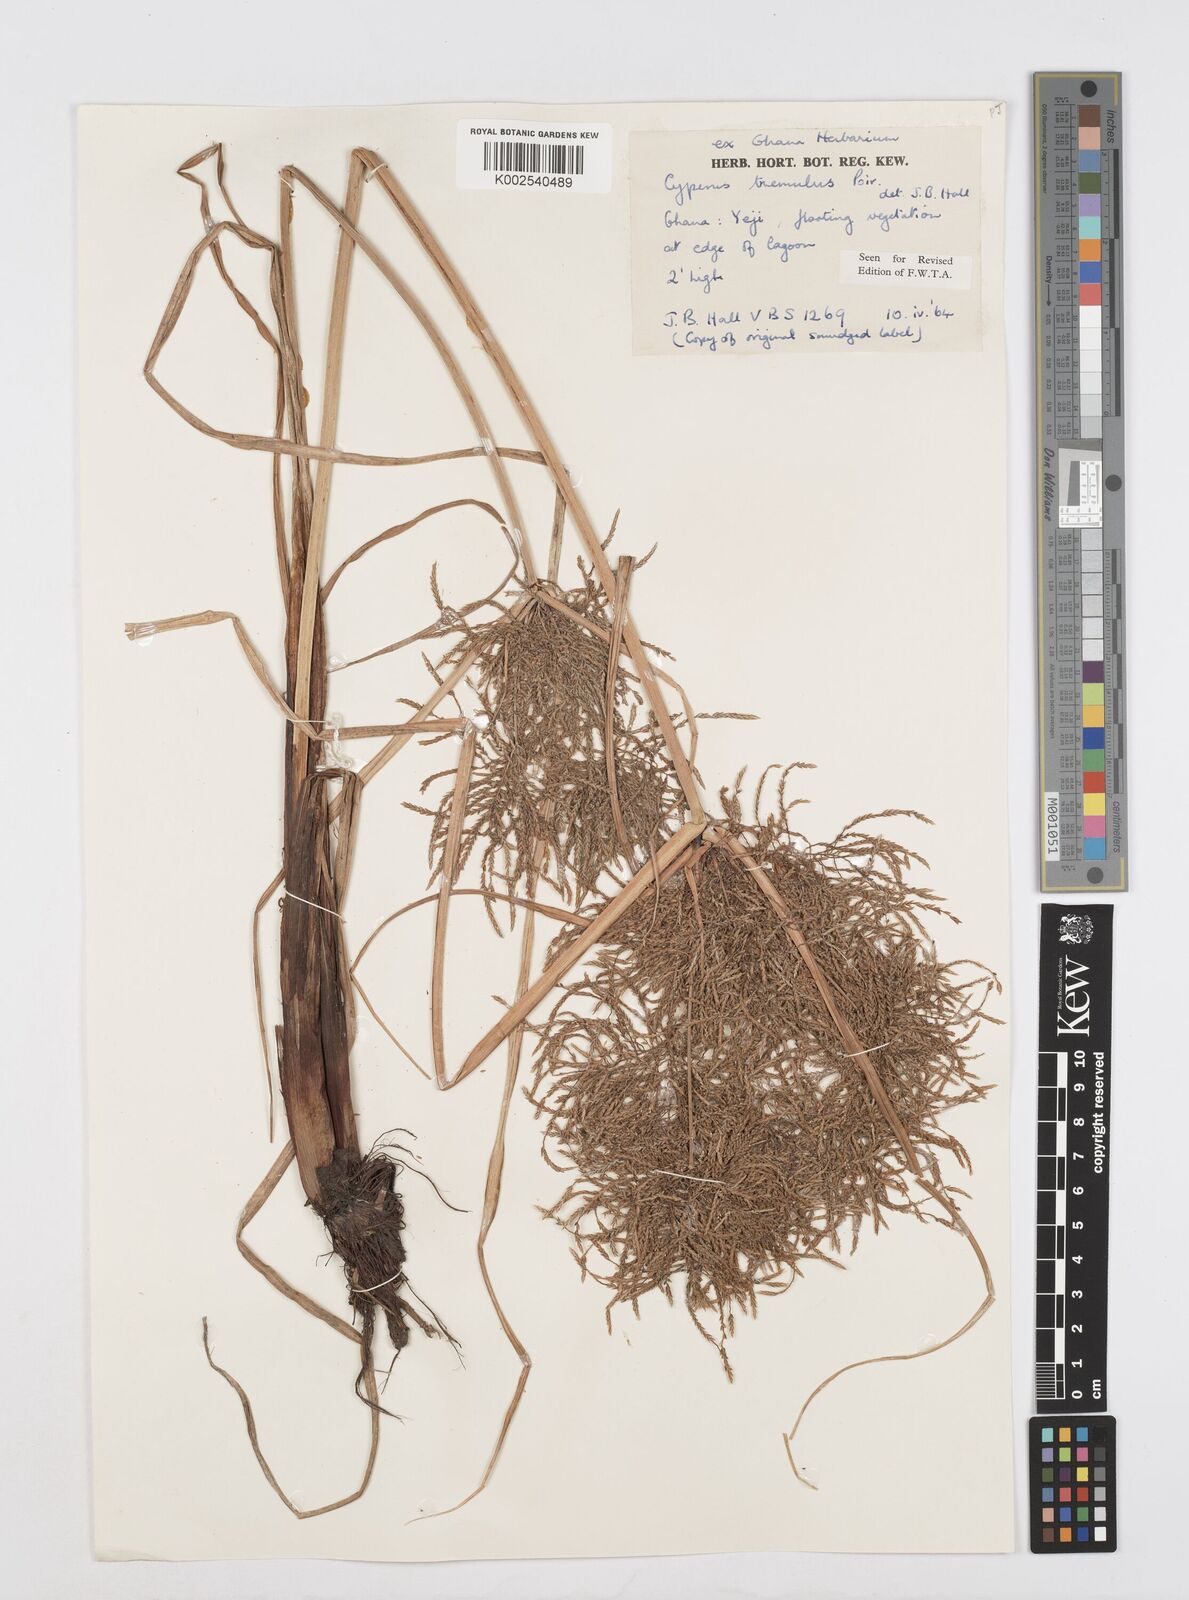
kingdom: Plantae
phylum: Tracheophyta
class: Liliopsida
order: Poales
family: Cyperaceae
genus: Cyperus
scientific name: Cyperus macrostachyos
